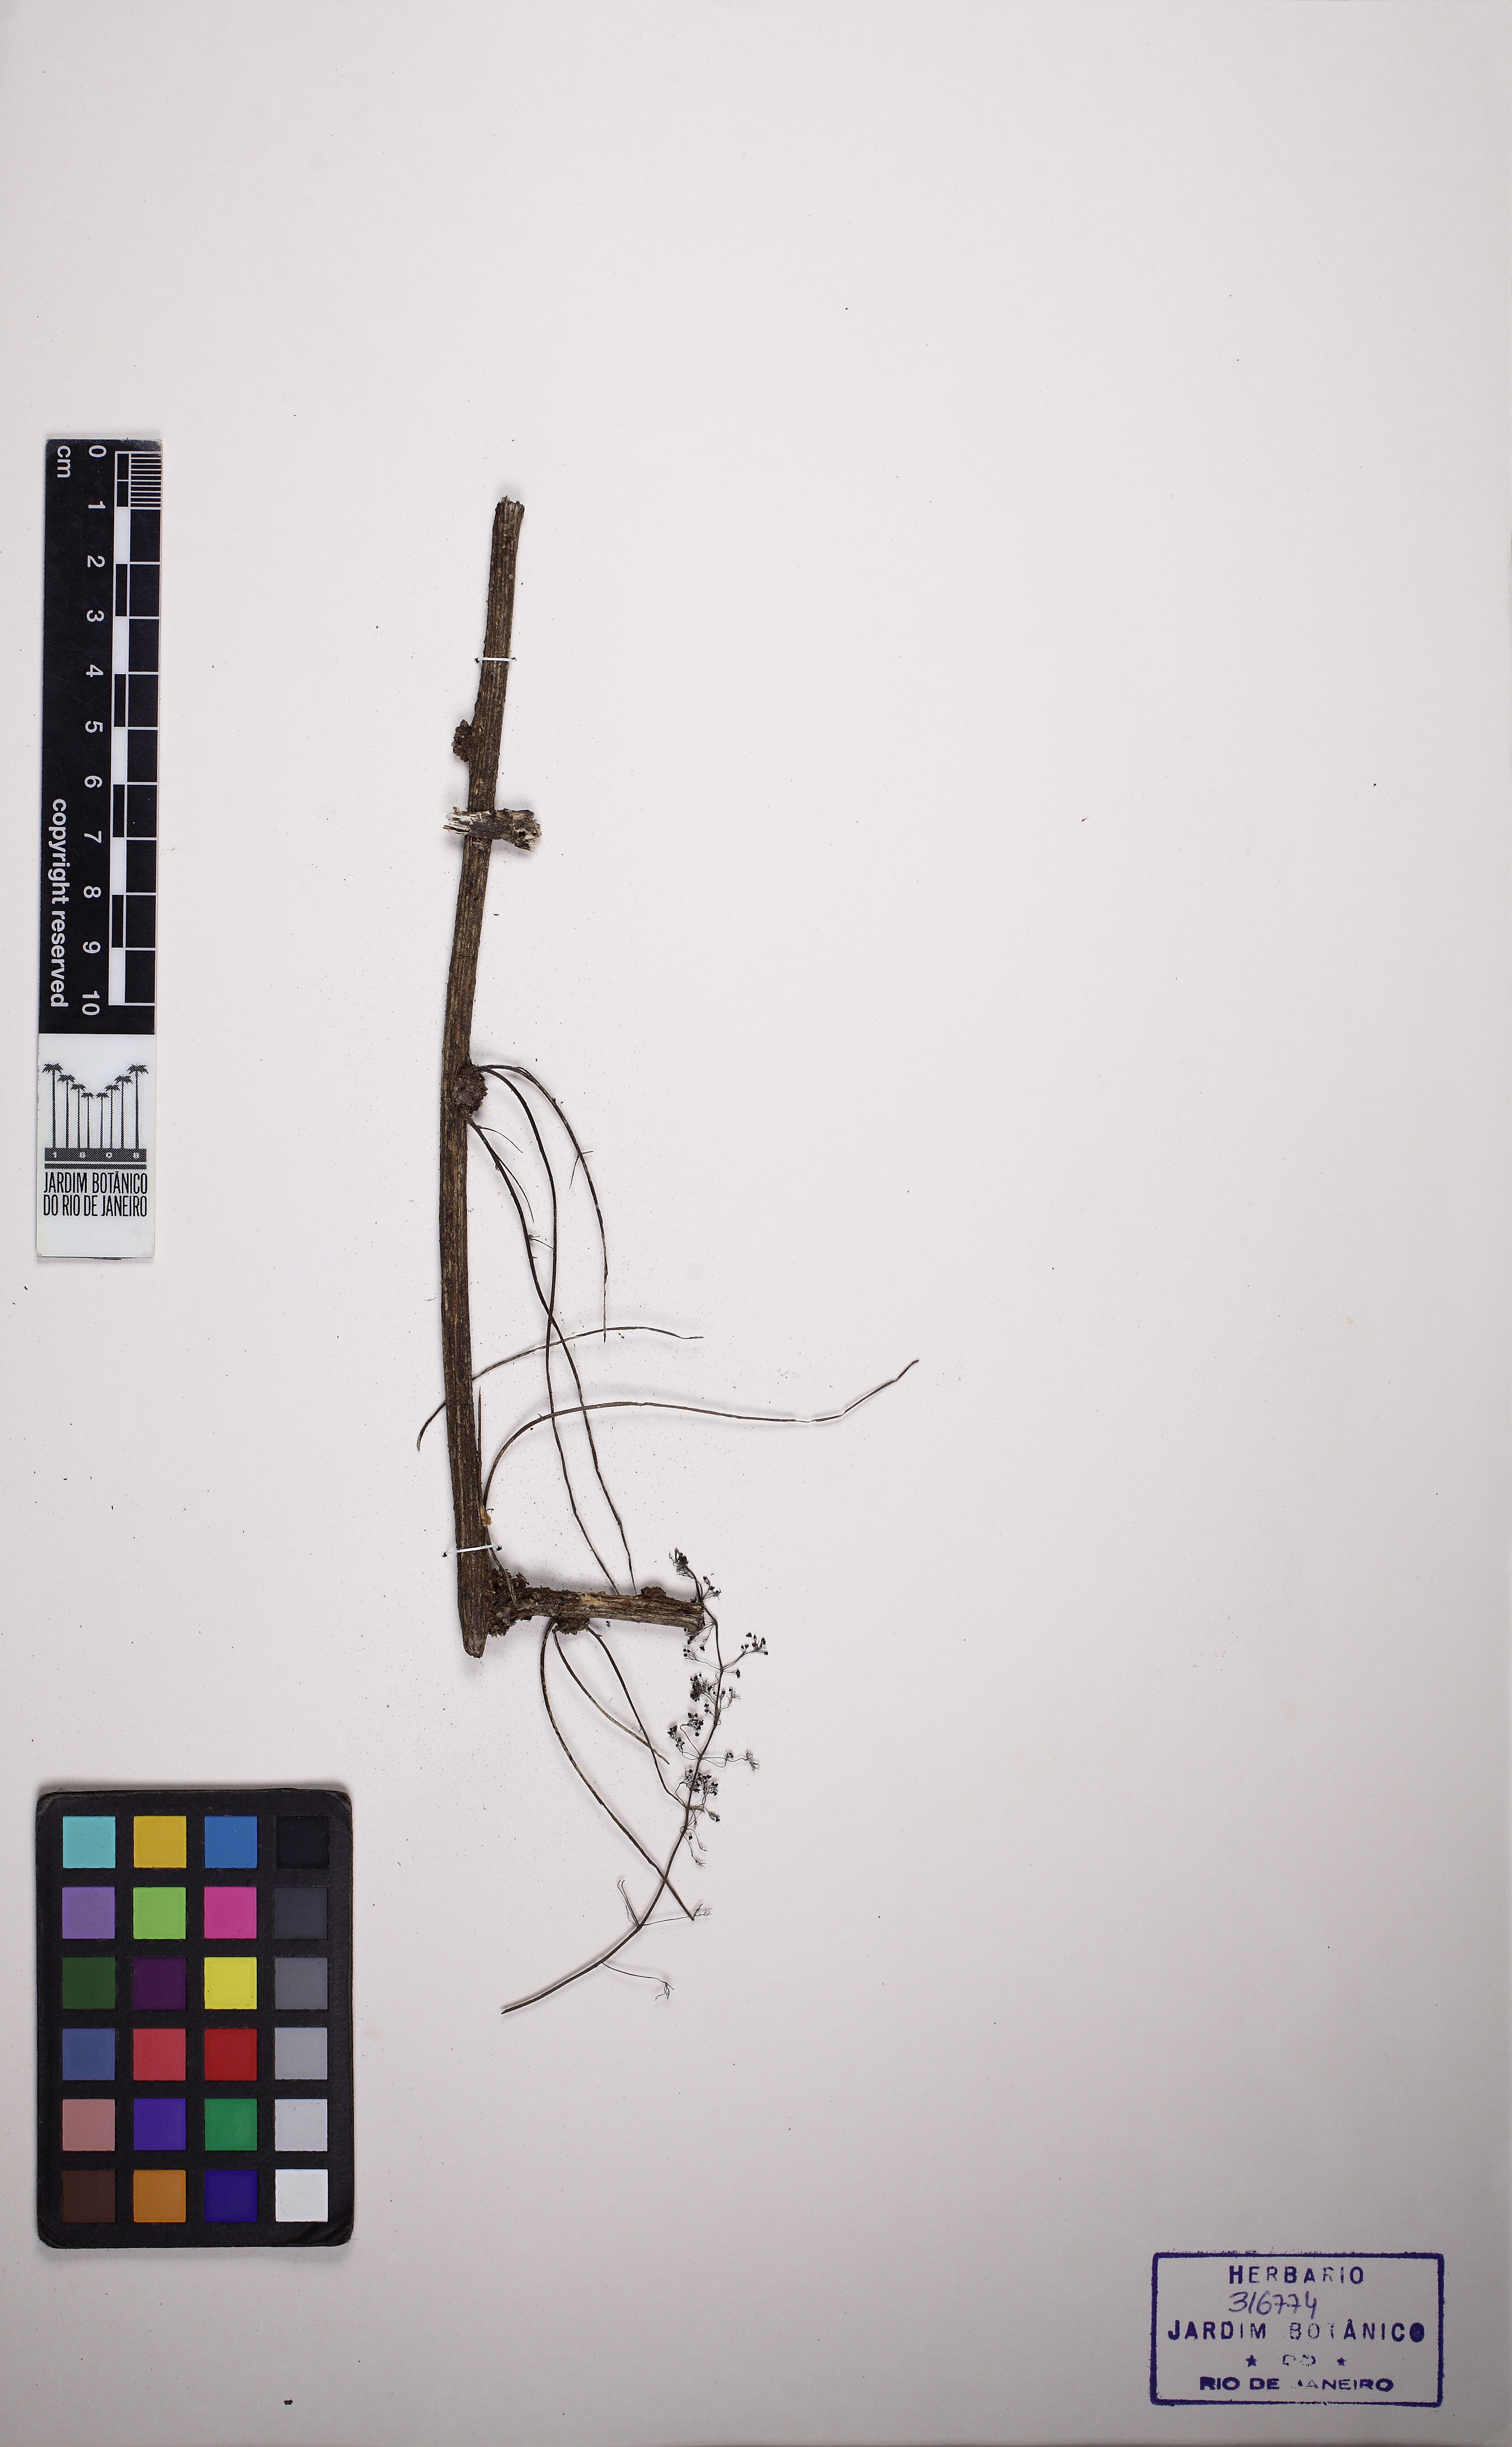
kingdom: Plantae
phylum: Tracheophyta
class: Magnoliopsida
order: Ranunculales
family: Menispermaceae
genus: Cissampelos
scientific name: Cissampelos
